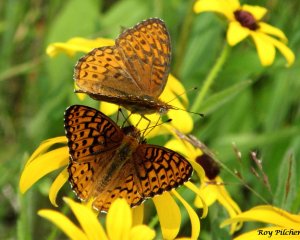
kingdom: Animalia
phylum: Arthropoda
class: Insecta
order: Lepidoptera
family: Nymphalidae
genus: Speyeria
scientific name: Speyeria atlantis
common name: Atlantis Fritillary
